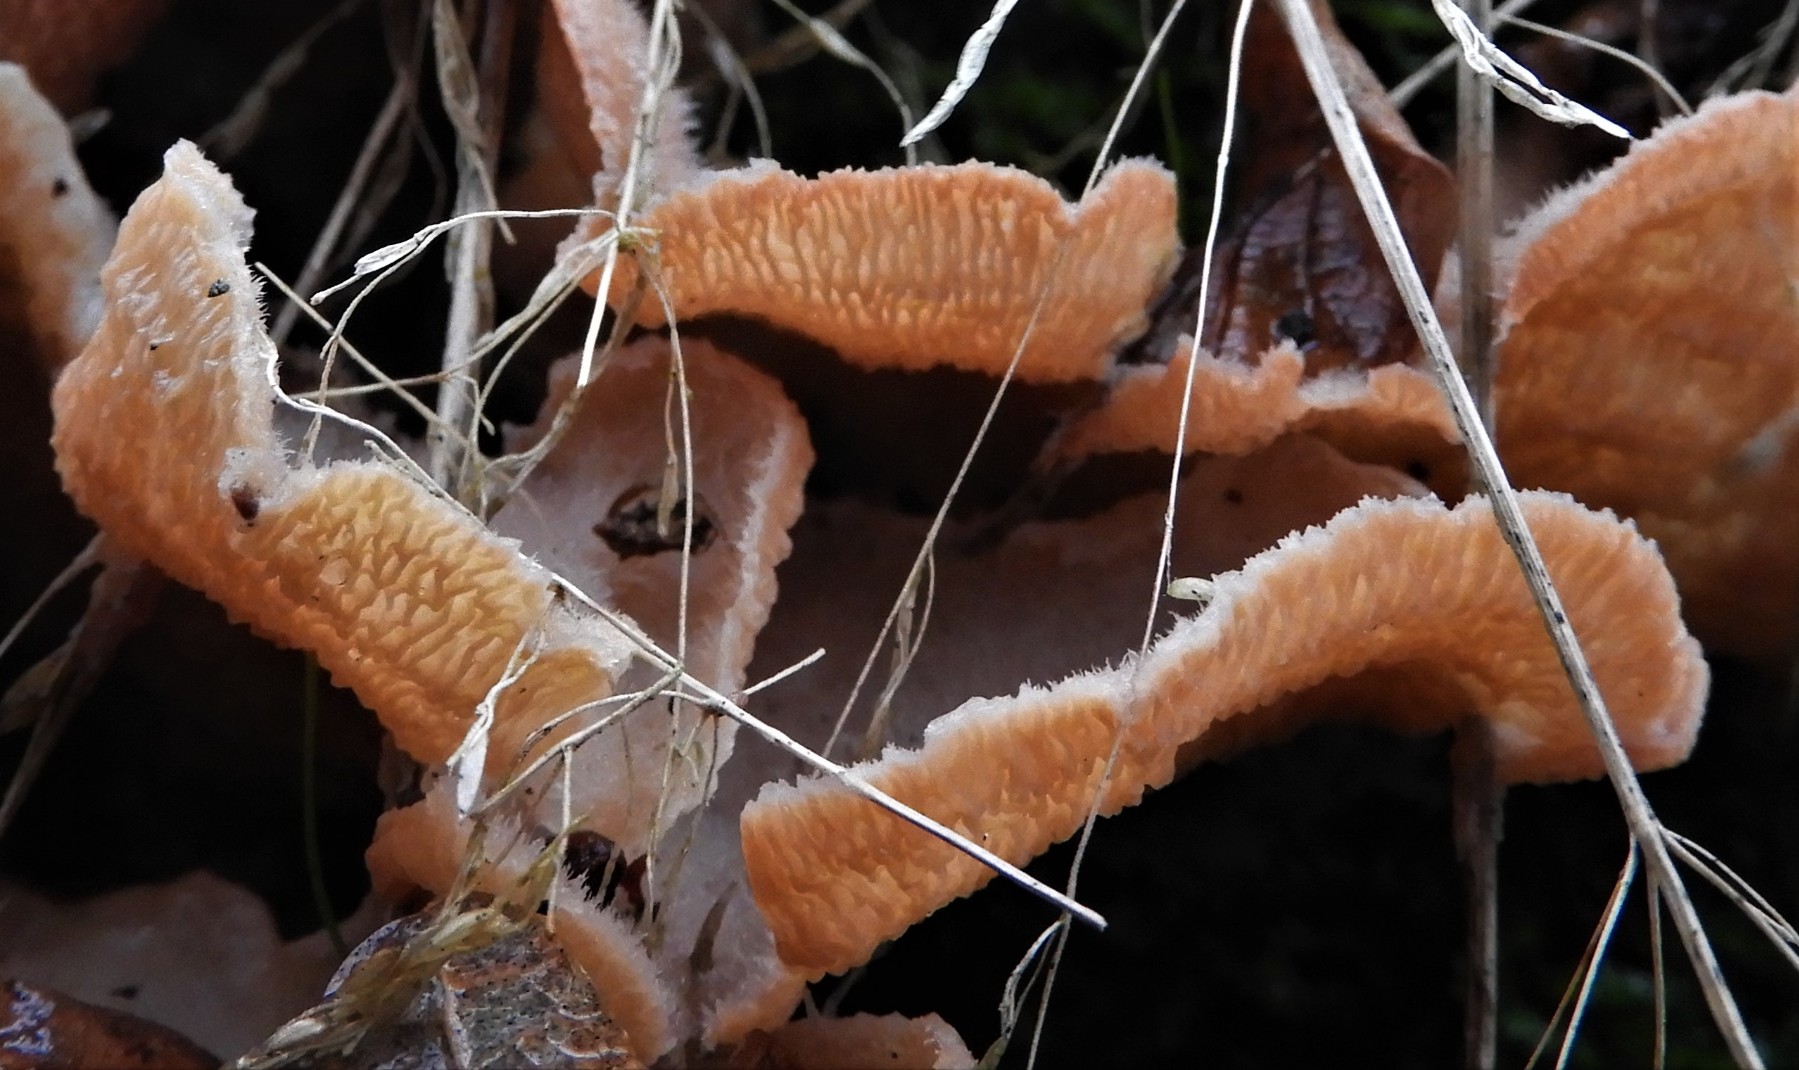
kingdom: Fungi
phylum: Basidiomycota
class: Agaricomycetes
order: Polyporales
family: Meruliaceae
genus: Phlebia
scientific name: Phlebia tremellosa
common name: bævrende åresvamp
